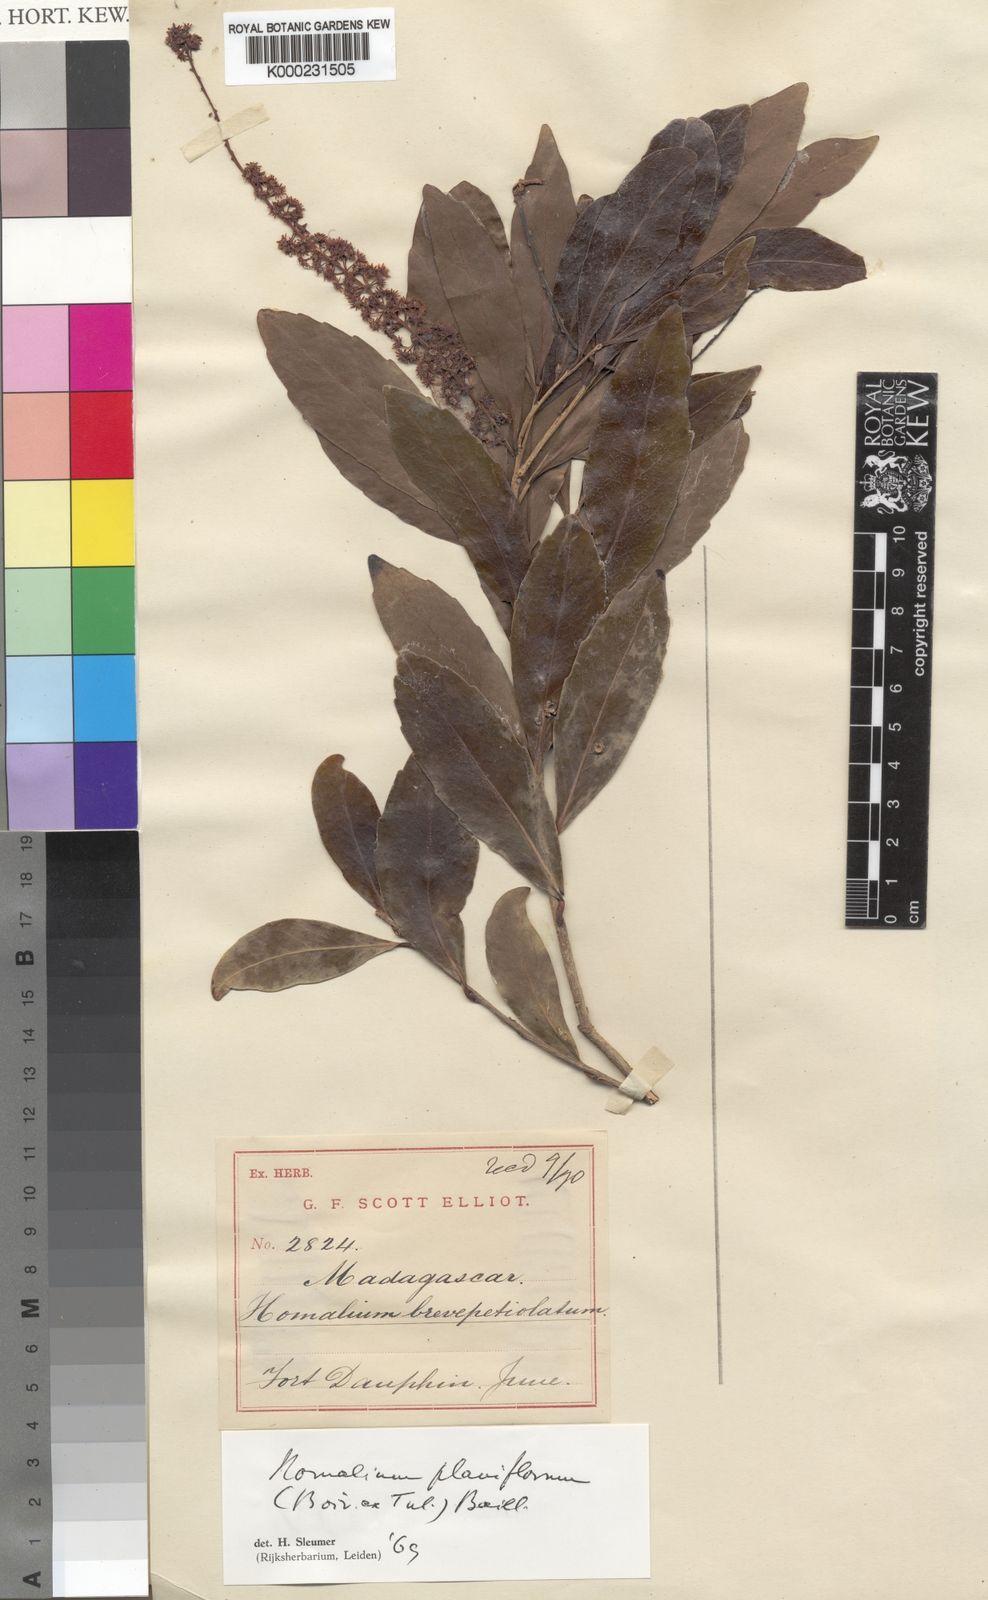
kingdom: Plantae
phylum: Tracheophyta
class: Magnoliopsida
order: Malpighiales
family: Salicaceae
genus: Homalium
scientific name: Homalium planiflorum
